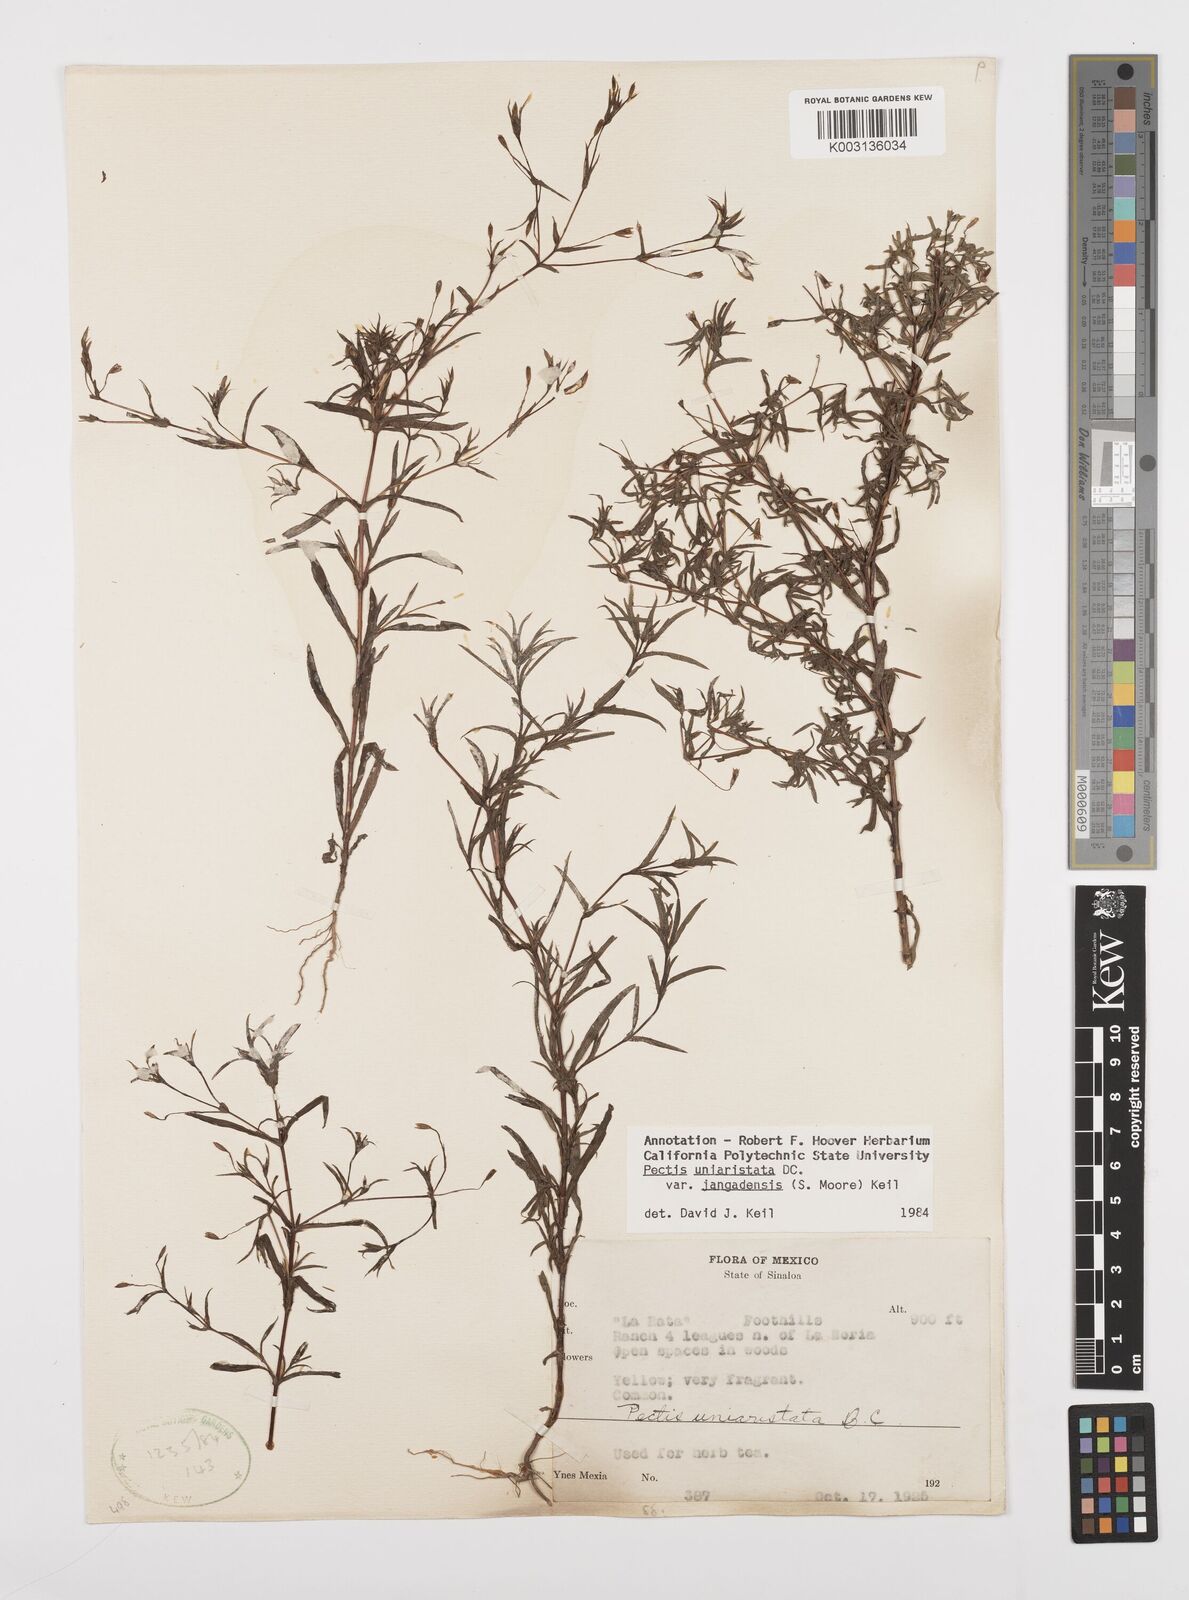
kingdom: Plantae
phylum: Tracheophyta
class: Magnoliopsida
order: Asterales
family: Asteraceae
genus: Pectis
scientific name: Pectis uniaristata
